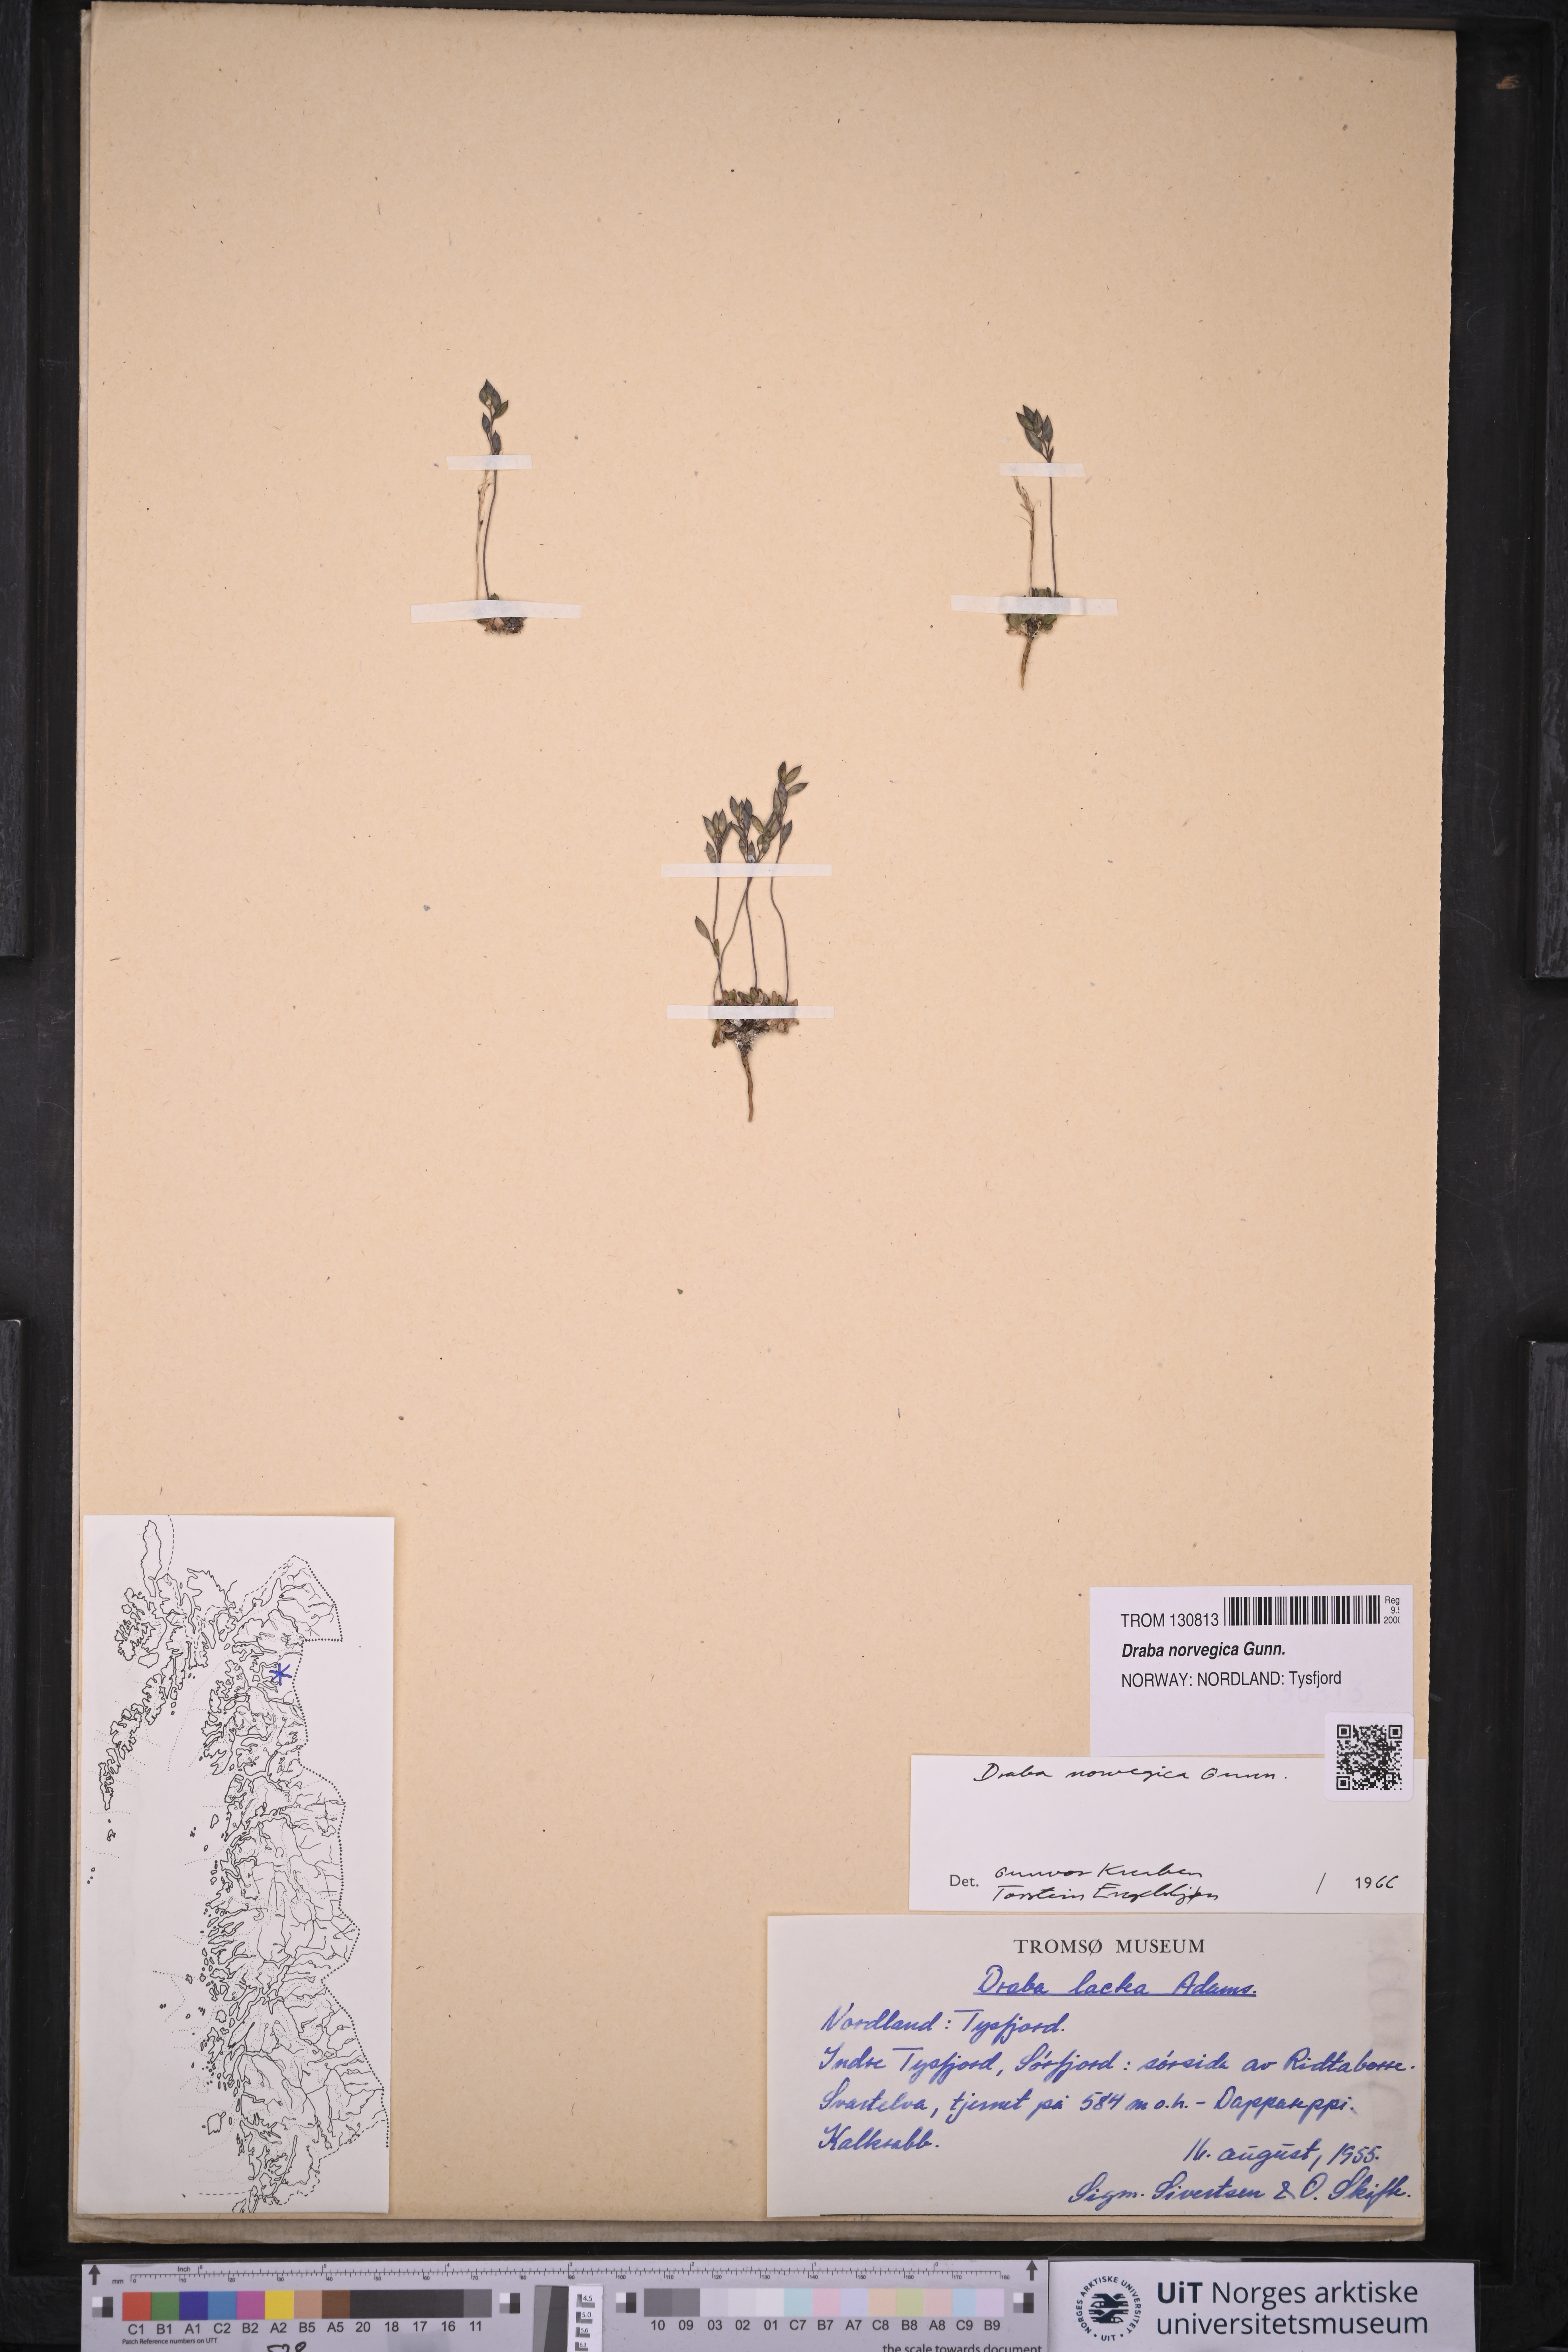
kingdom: Plantae
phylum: Tracheophyta
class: Magnoliopsida
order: Brassicales
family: Brassicaceae
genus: Draba
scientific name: Draba norvegica
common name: Rock whitlowgrass
